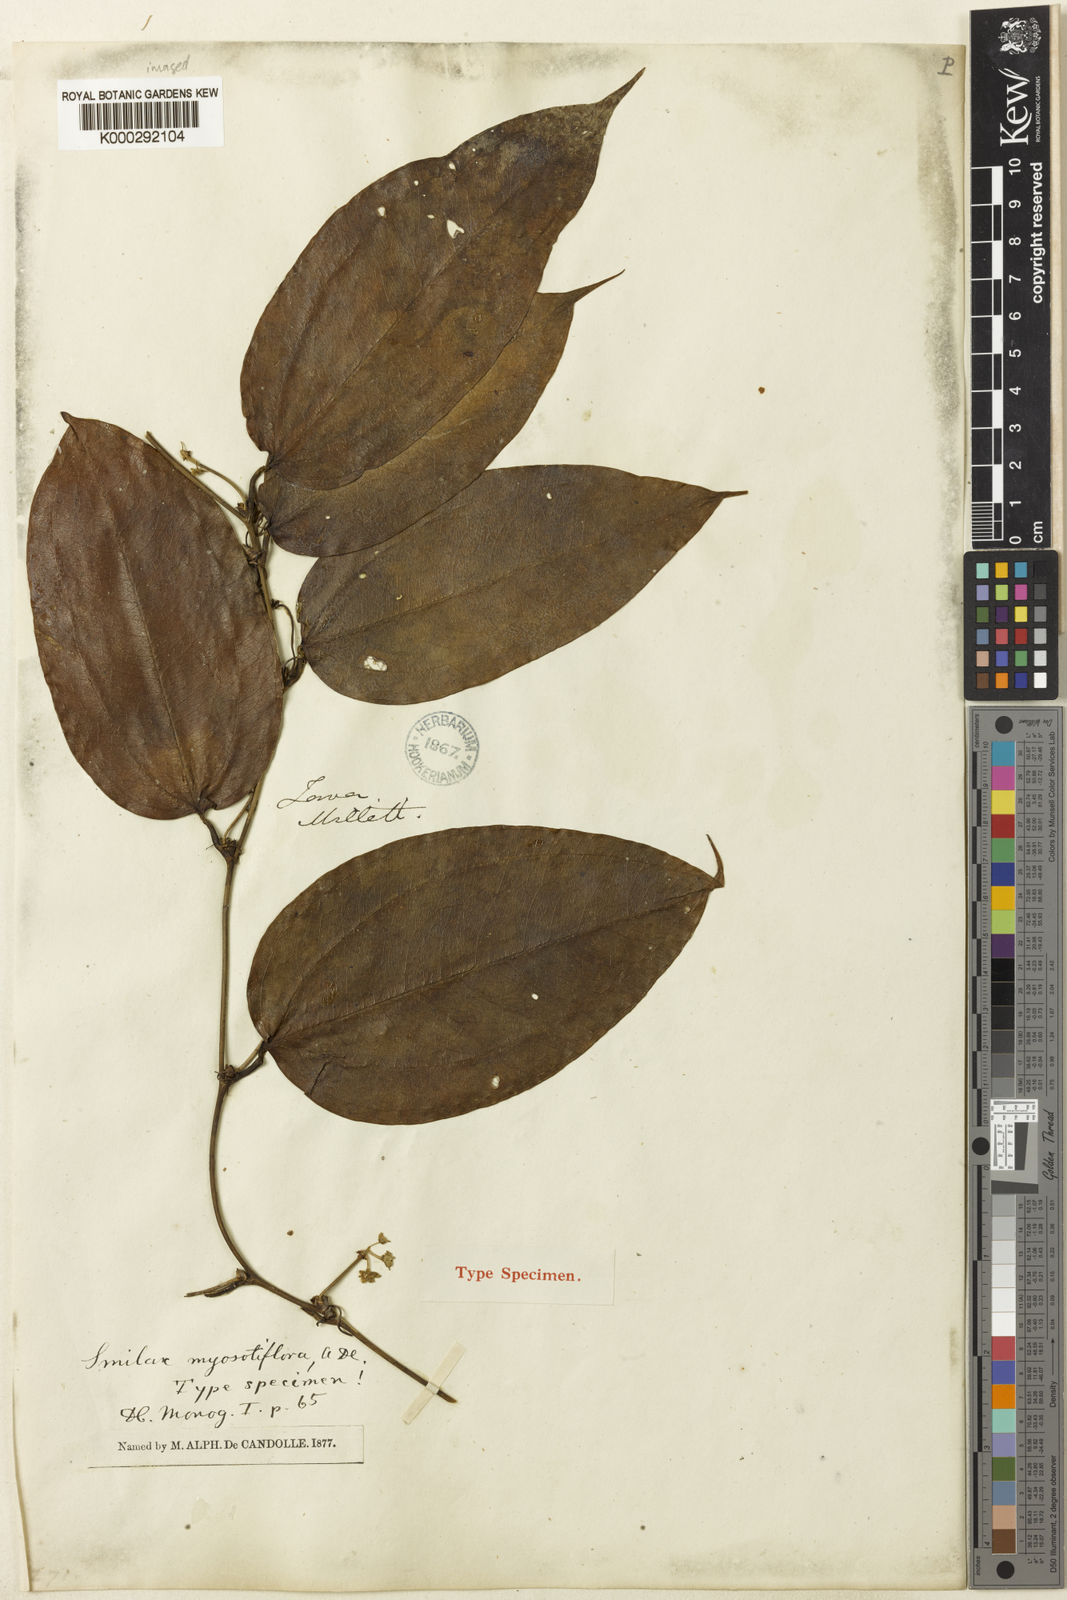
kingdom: Plantae
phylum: Tracheophyta
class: Liliopsida
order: Liliales
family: Smilacaceae
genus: Smilax
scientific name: Smilax myosotiflora
